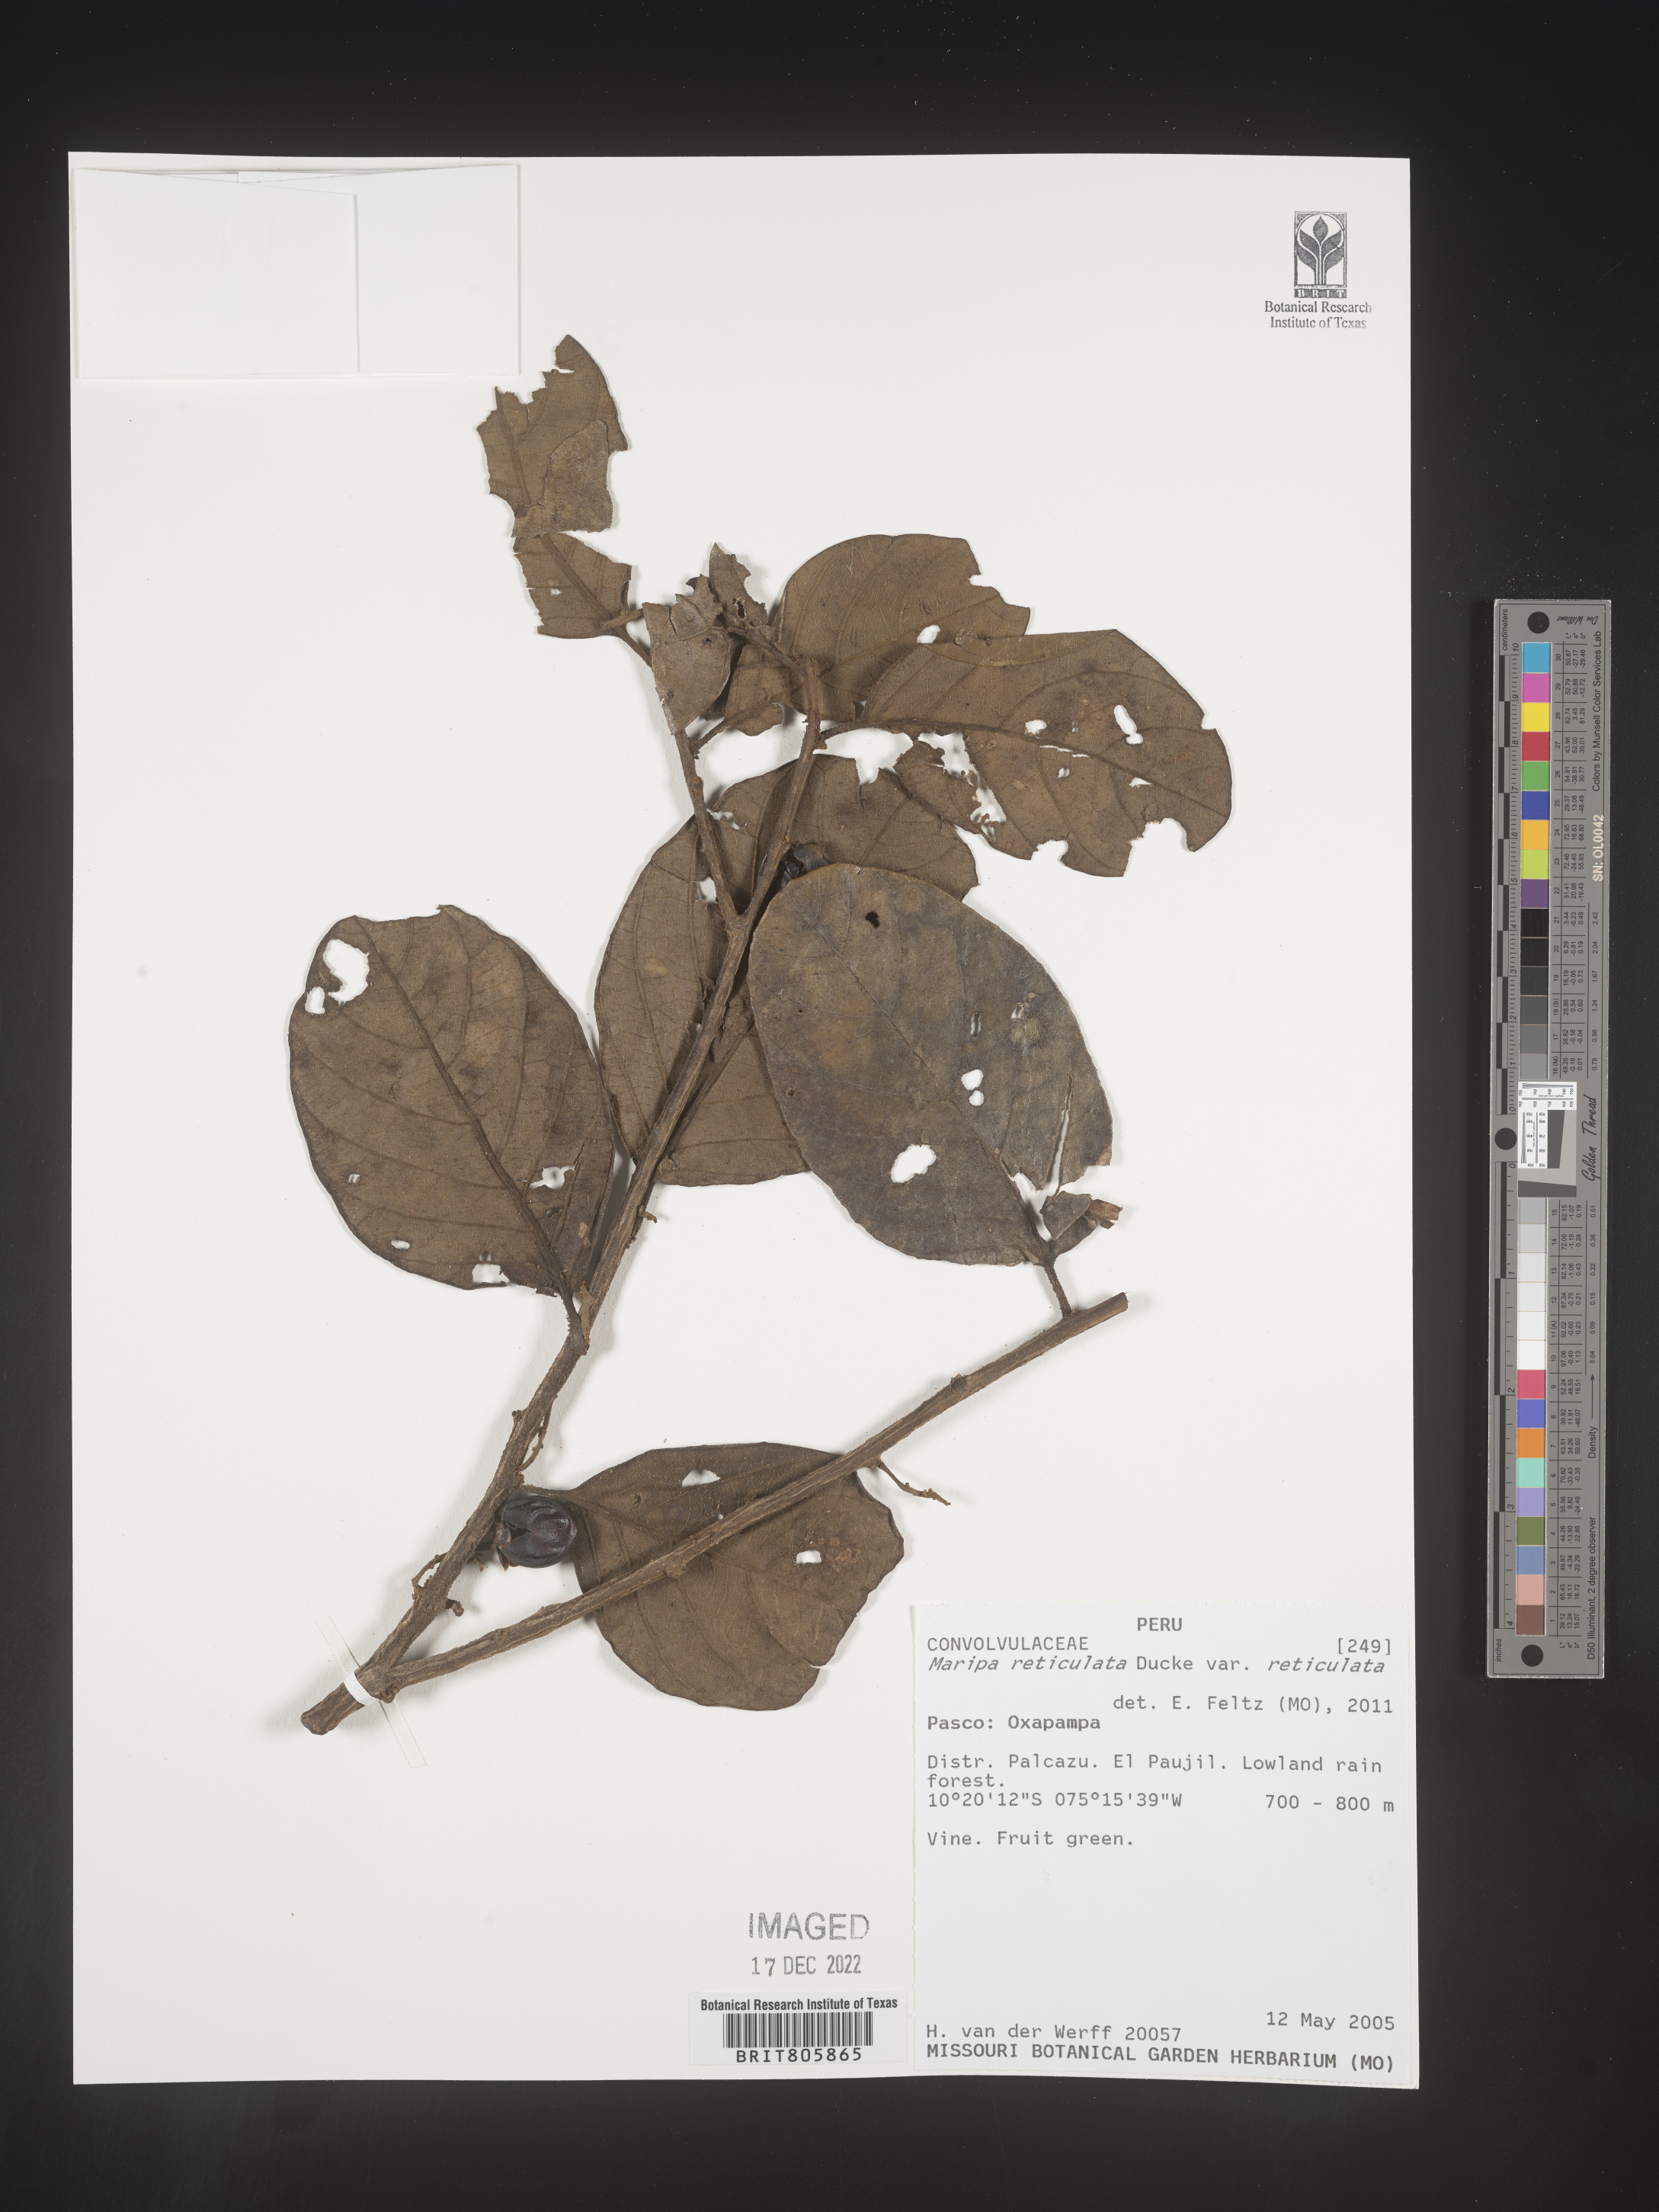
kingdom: Plantae
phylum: Tracheophyta
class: Magnoliopsida
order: Solanales
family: Convolvulaceae
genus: Maripa
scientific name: Maripa
